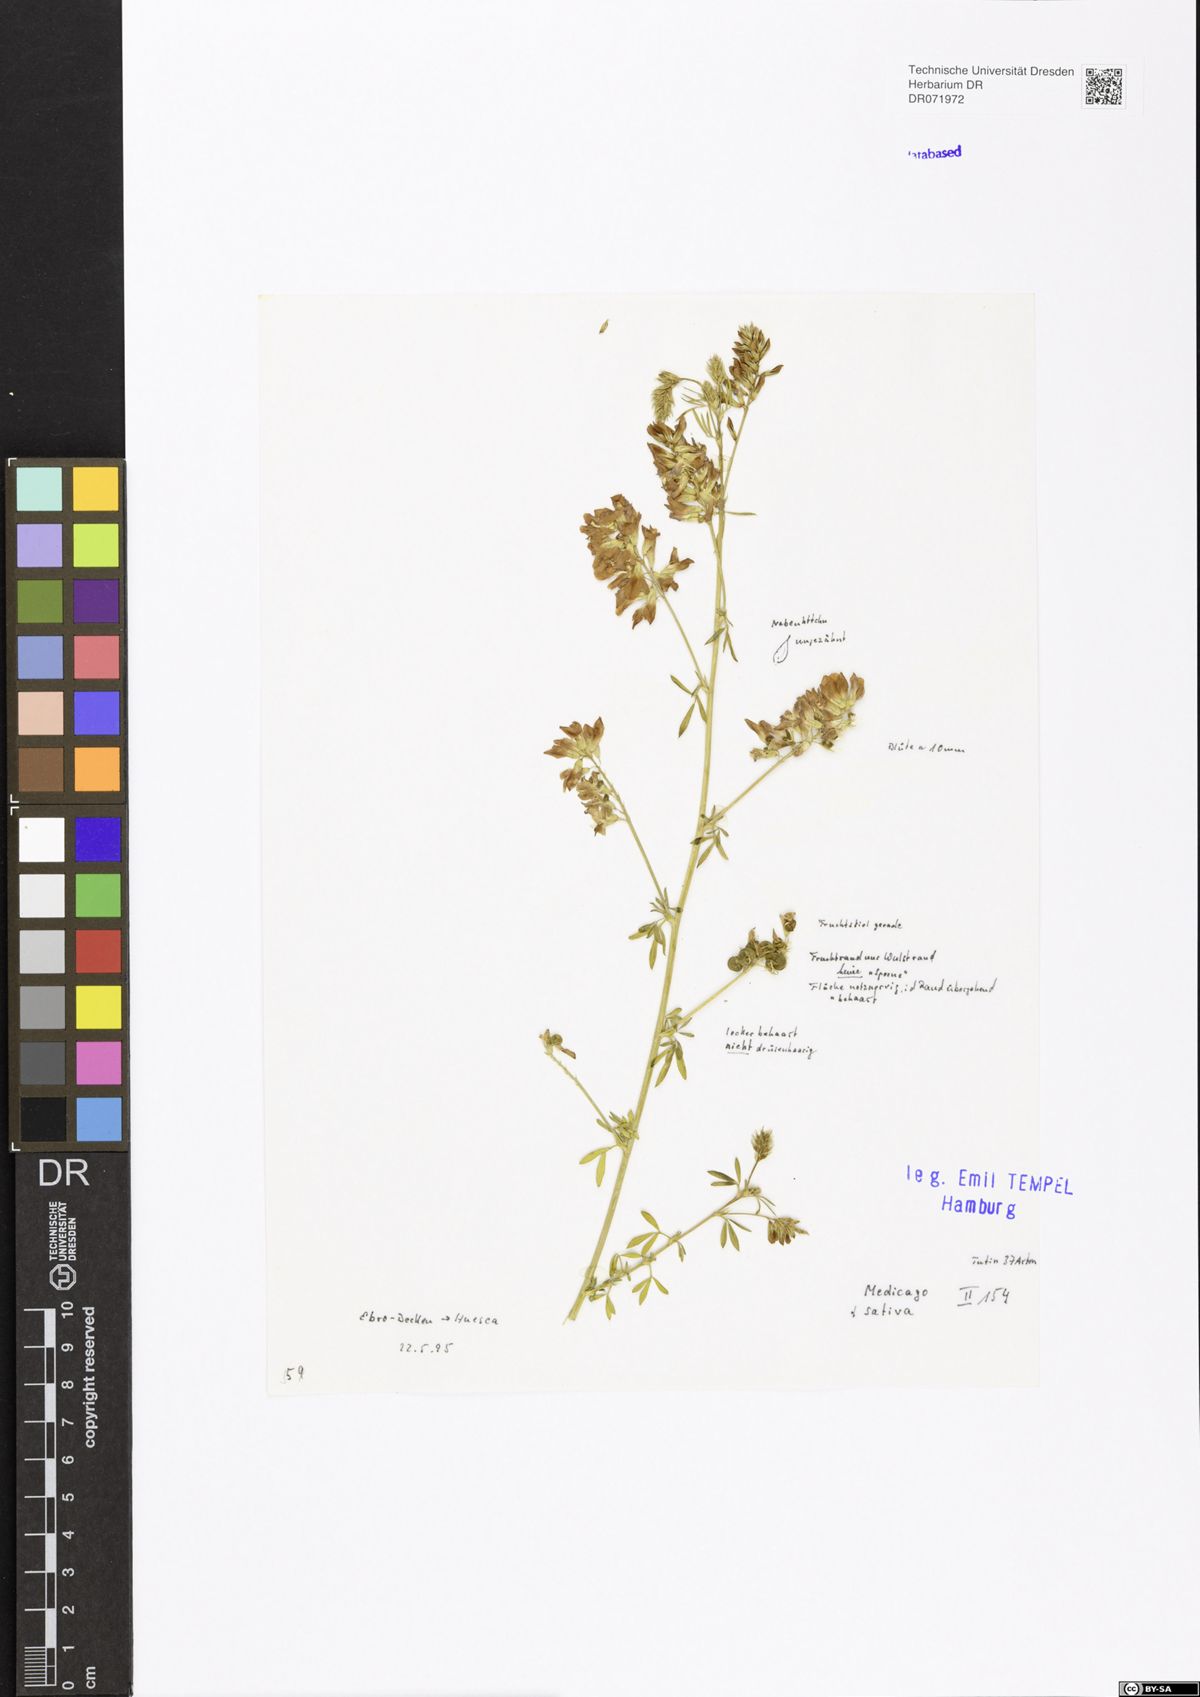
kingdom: Plantae
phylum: Tracheophyta
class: Magnoliopsida
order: Fabales
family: Fabaceae
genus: Medicago
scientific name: Medicago sativa
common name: Alfalfa
